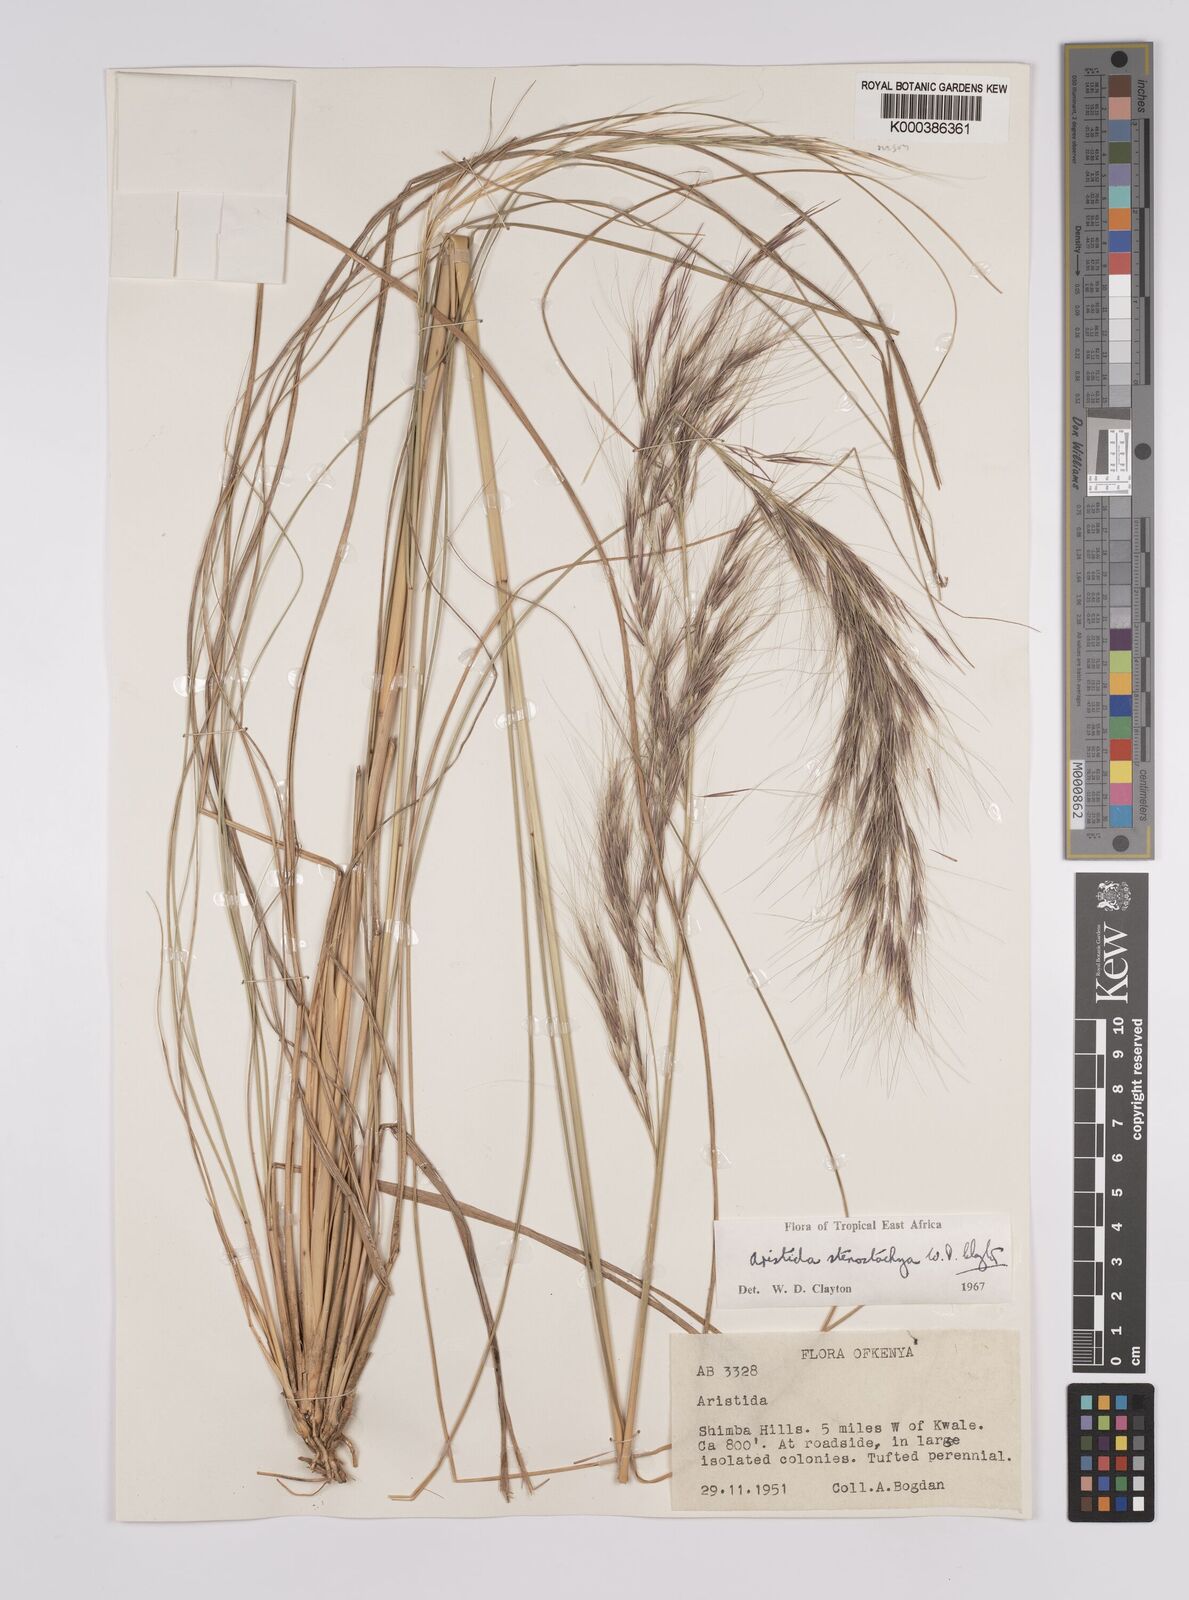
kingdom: Plantae
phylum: Tracheophyta
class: Liliopsida
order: Poales
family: Poaceae
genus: Aristida
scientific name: Aristida stenostachya
